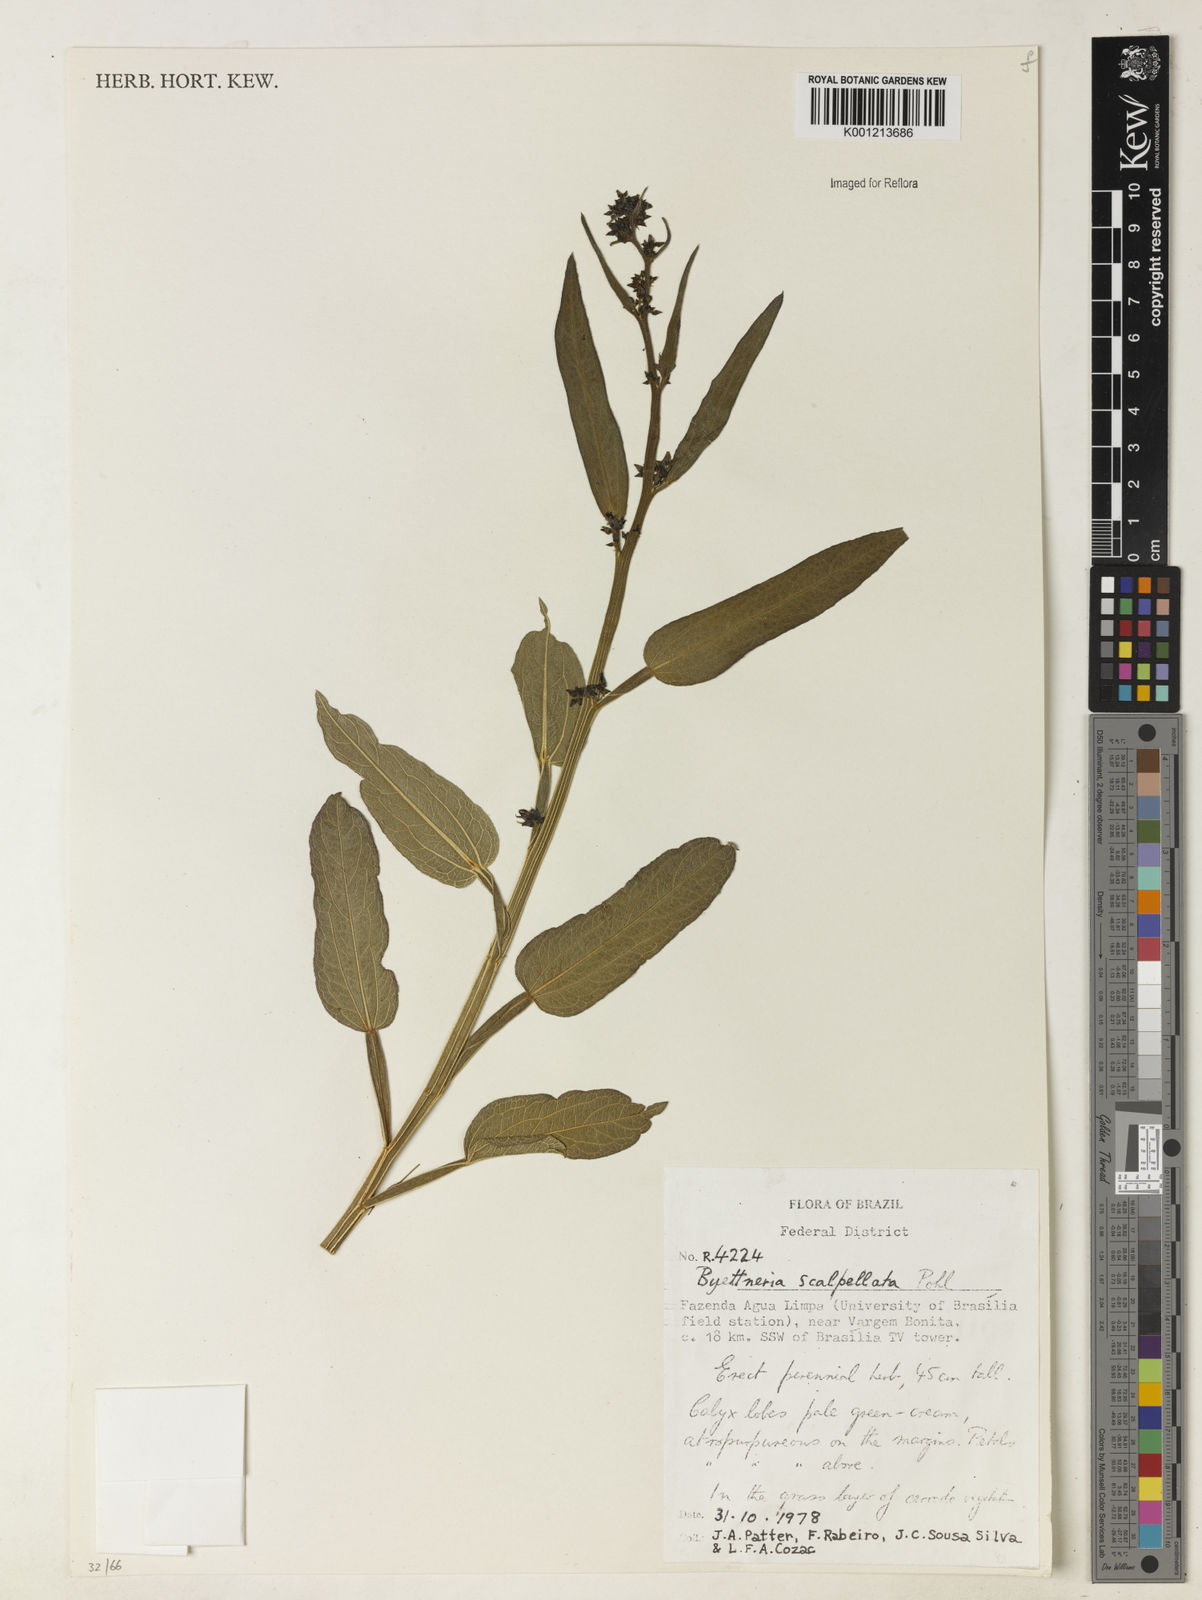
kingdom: Plantae
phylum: Tracheophyta
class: Magnoliopsida
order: Malvales
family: Malvaceae
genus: Byttneria
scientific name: Byttneria scalpellata
